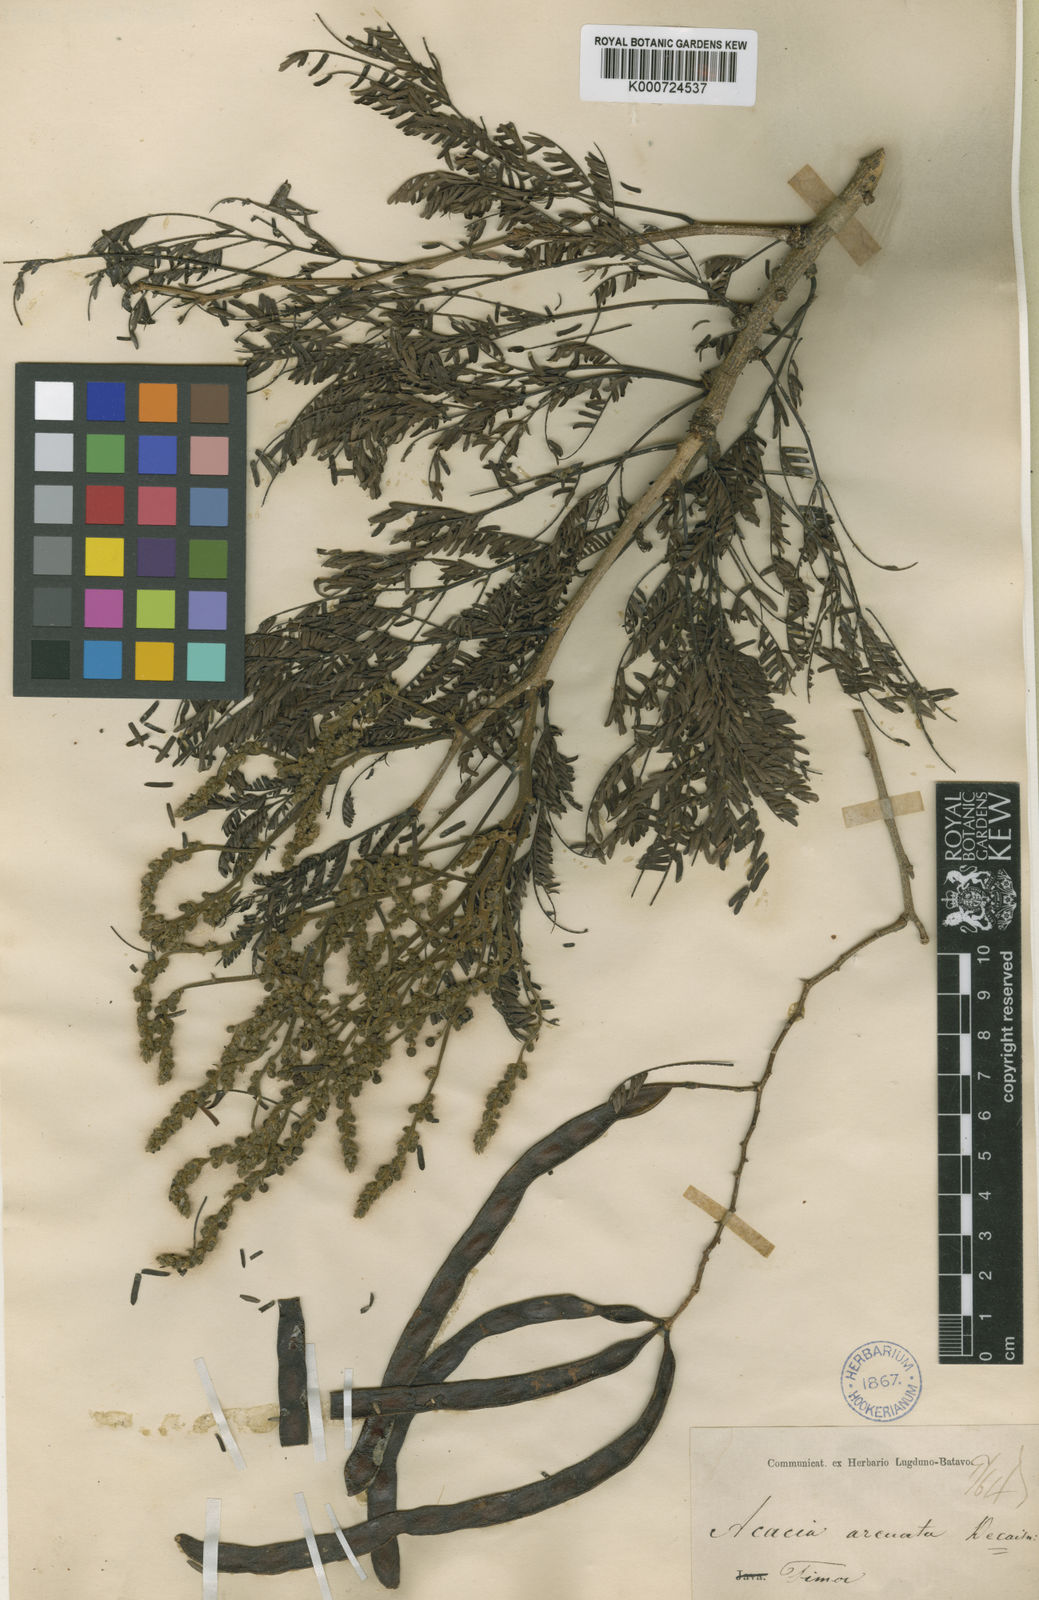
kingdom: Plantae
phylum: Tracheophyta
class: Magnoliopsida
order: Fabales
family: Fabaceae
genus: Vachellia
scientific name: Vachellia leucophloea
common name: Distiller's acacia
